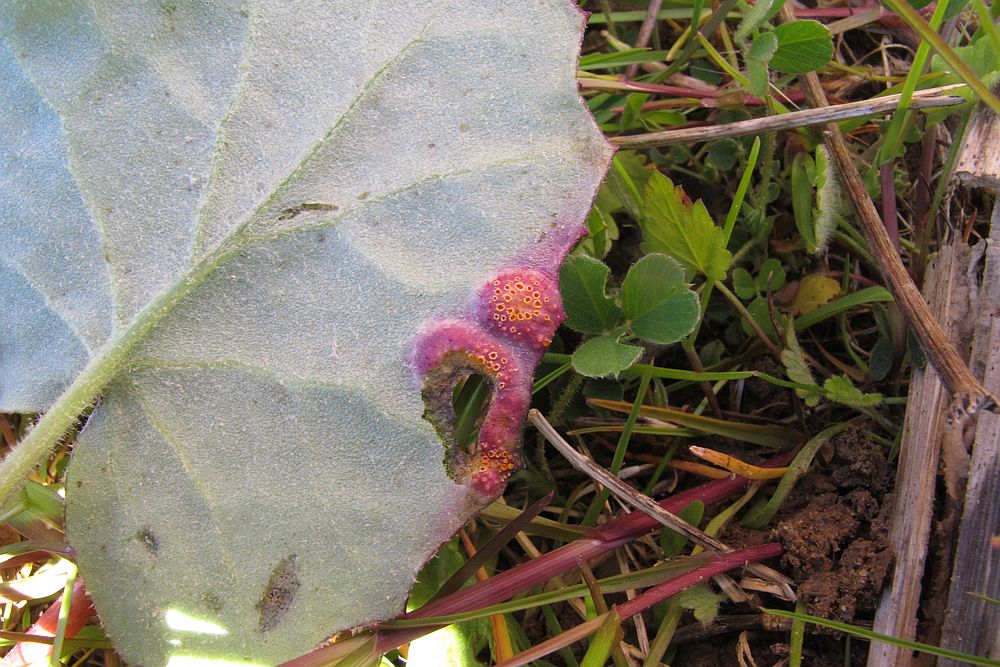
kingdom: Fungi
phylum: Basidiomycota
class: Pucciniomycetes
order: Pucciniales
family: Pucciniaceae
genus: Puccinia
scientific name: Puccinia poarum
